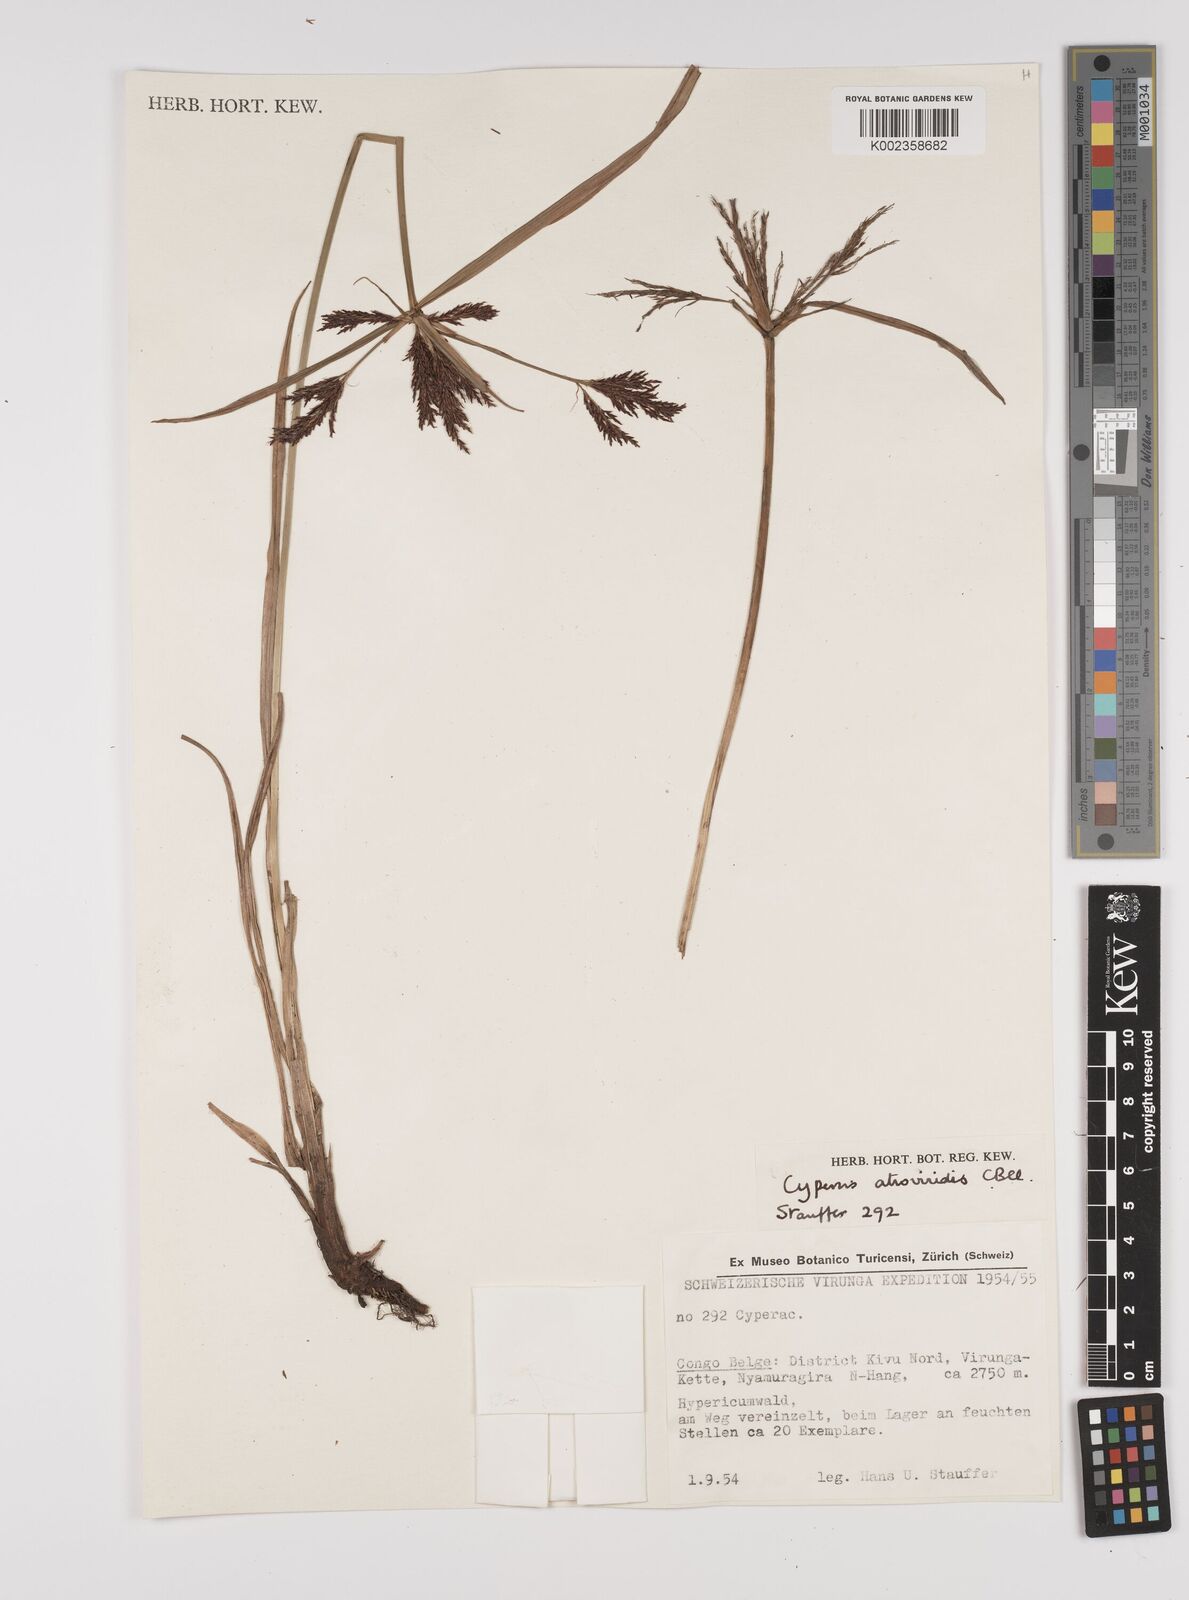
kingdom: Plantae
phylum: Tracheophyta
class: Liliopsida
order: Poales
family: Cyperaceae
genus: Cyperus
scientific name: Cyperus aterrimus
